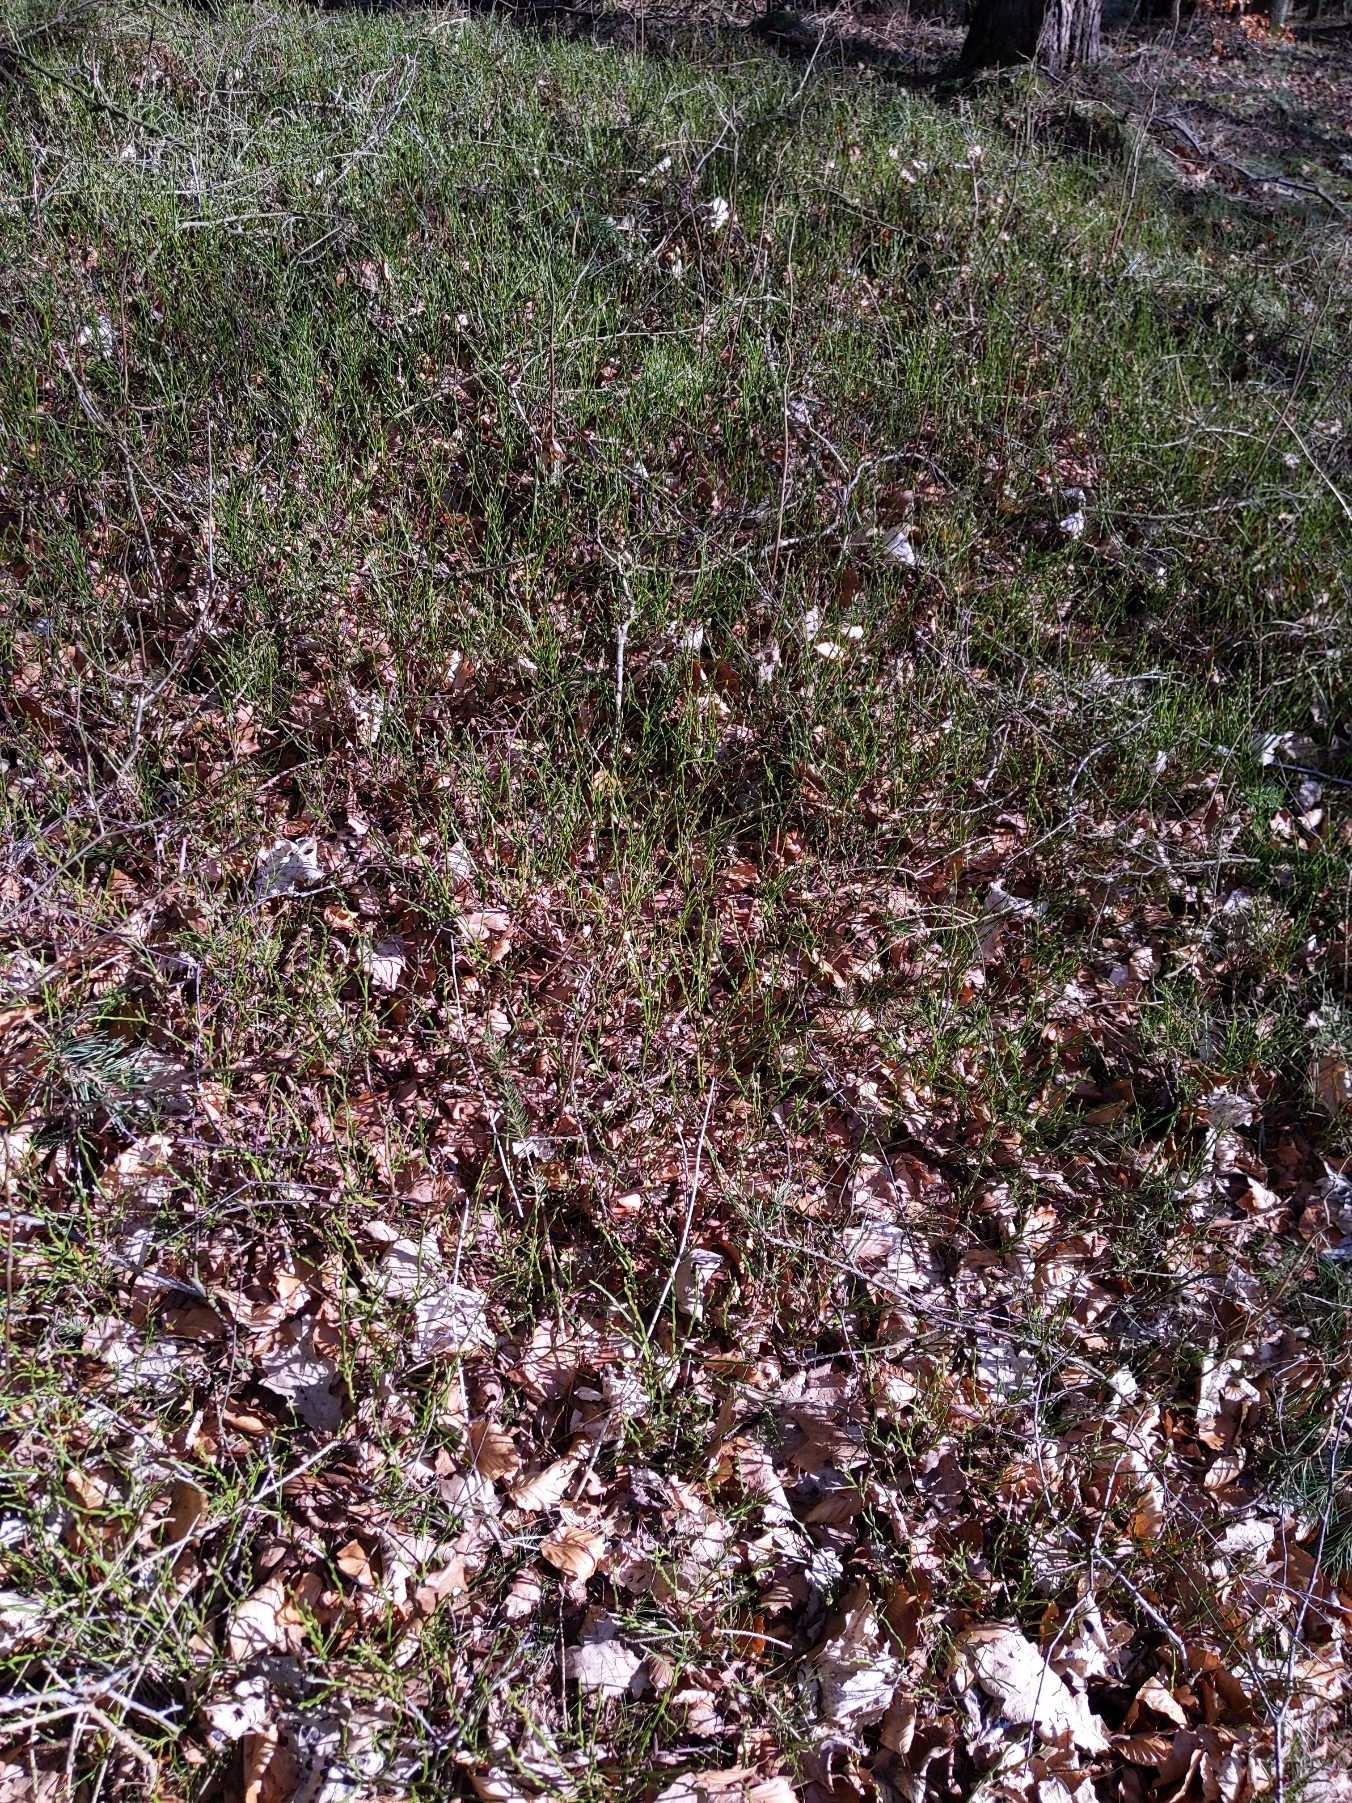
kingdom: Plantae
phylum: Tracheophyta
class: Magnoliopsida
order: Ericales
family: Ericaceae
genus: Vaccinium
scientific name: Vaccinium myrtillus
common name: Blåbær
